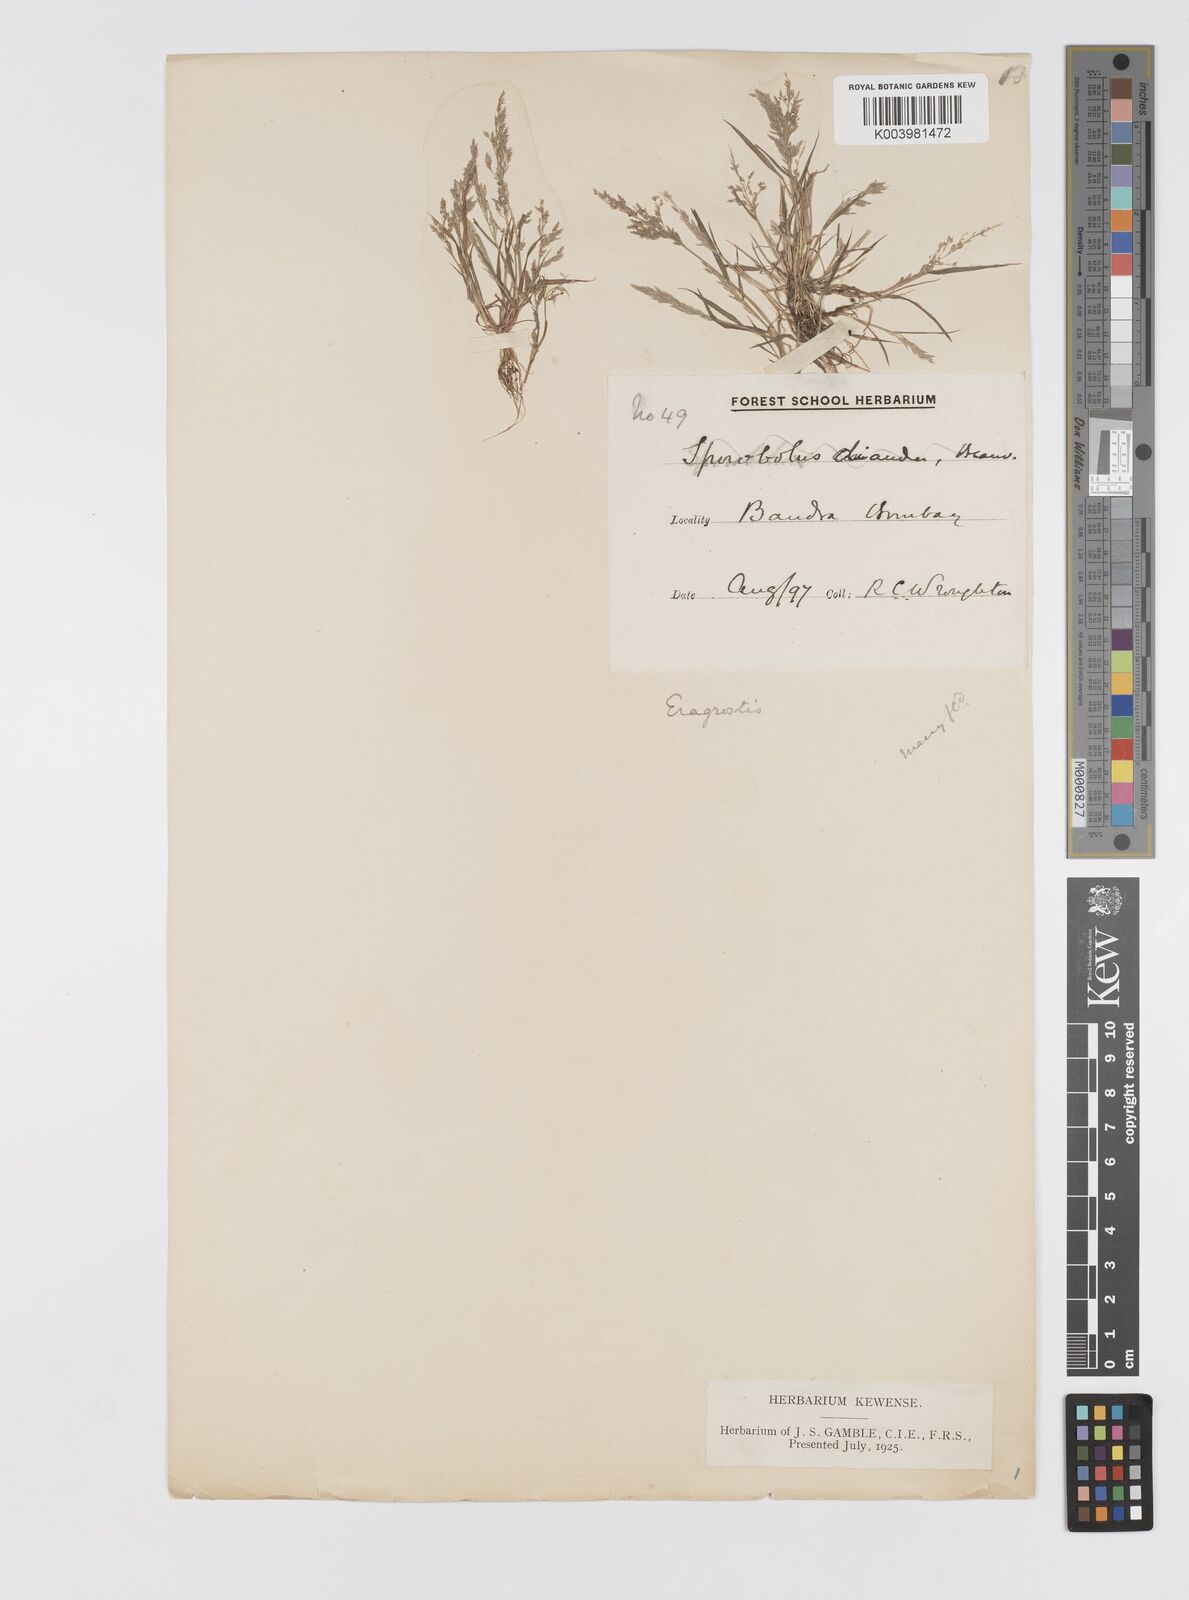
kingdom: Plantae
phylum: Tracheophyta
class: Liliopsida
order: Poales
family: Poaceae
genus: Eragrostis
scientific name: Eragrostis pilosa
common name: Indian lovegrass
